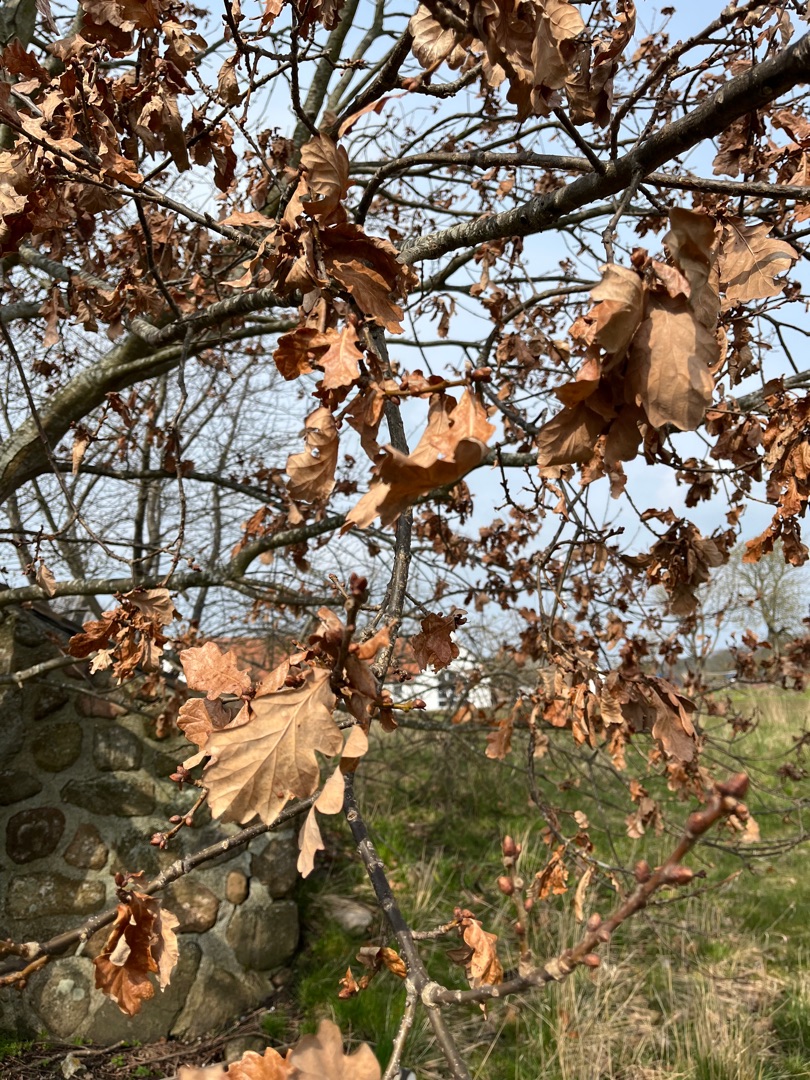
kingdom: Plantae
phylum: Tracheophyta
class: Magnoliopsida
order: Fagales
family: Fagaceae
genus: Quercus
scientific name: Quercus robur
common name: Stilk-eg/almindelig eg
